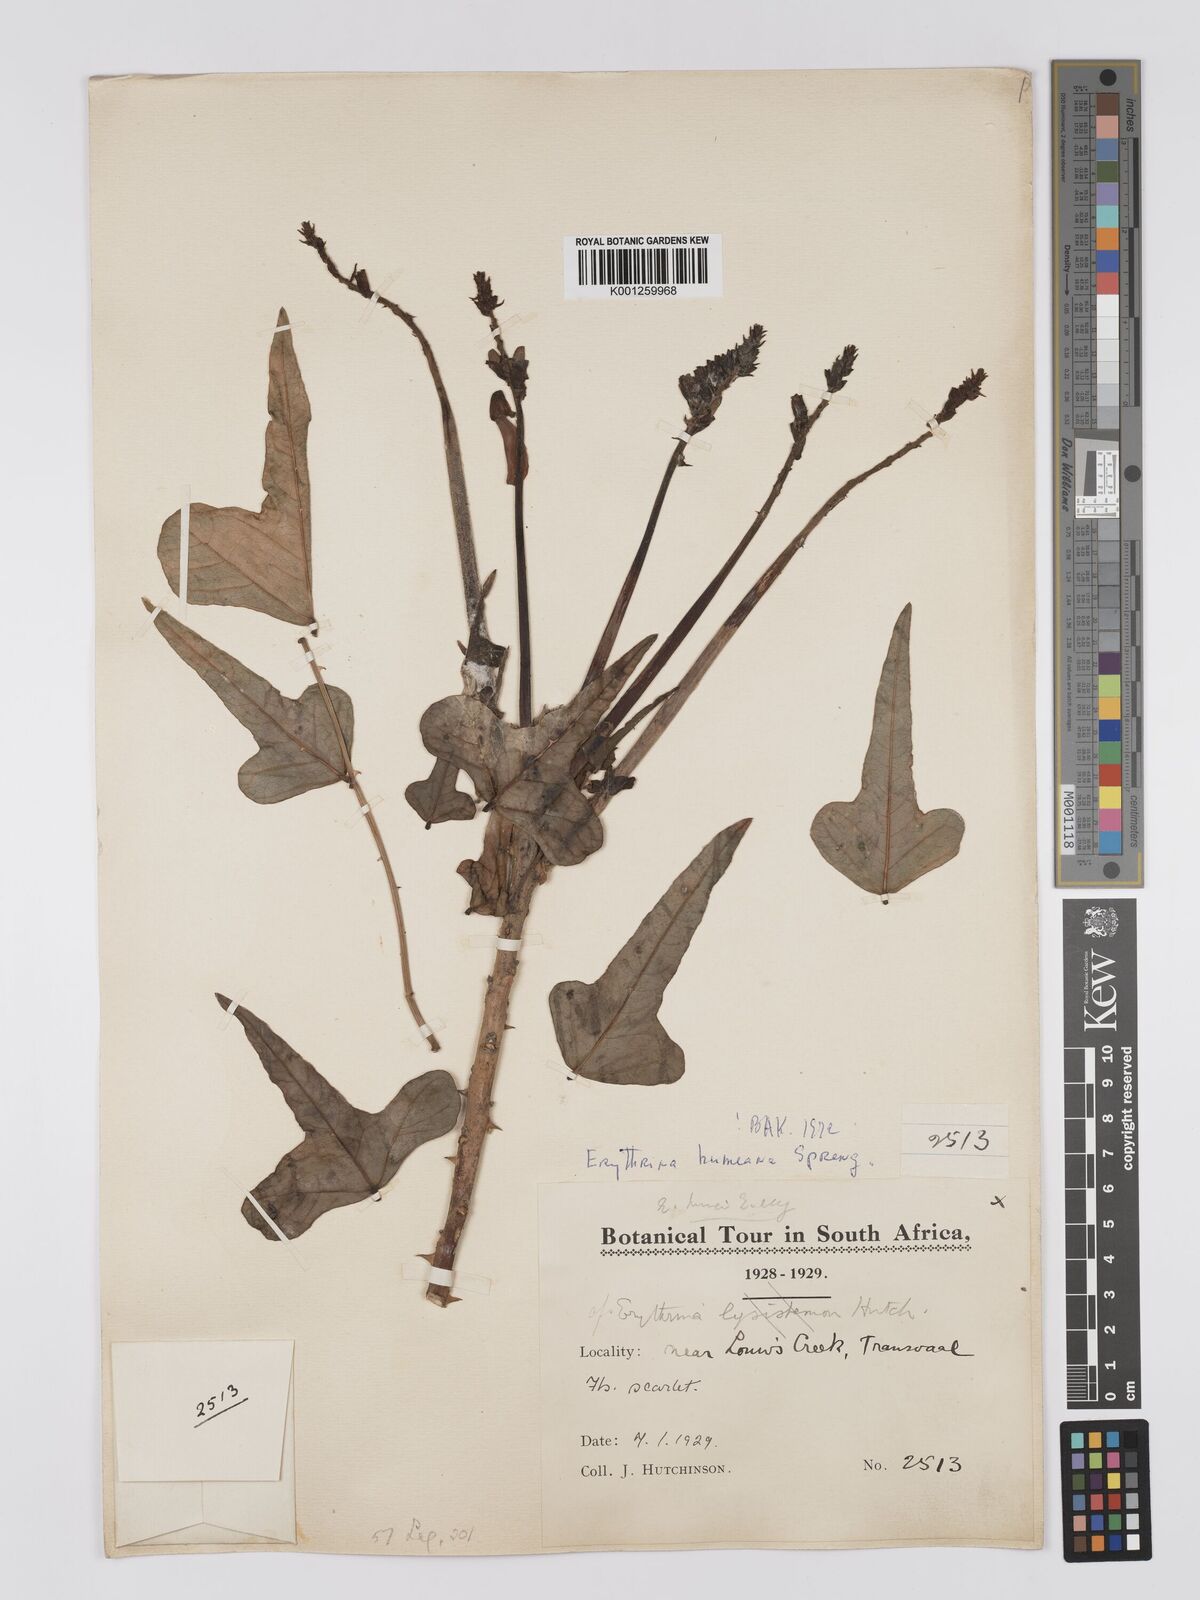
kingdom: Plantae
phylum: Tracheophyta
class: Magnoliopsida
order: Fabales
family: Fabaceae
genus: Erythrina
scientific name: Erythrina humeana
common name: Dwarf coral tree
